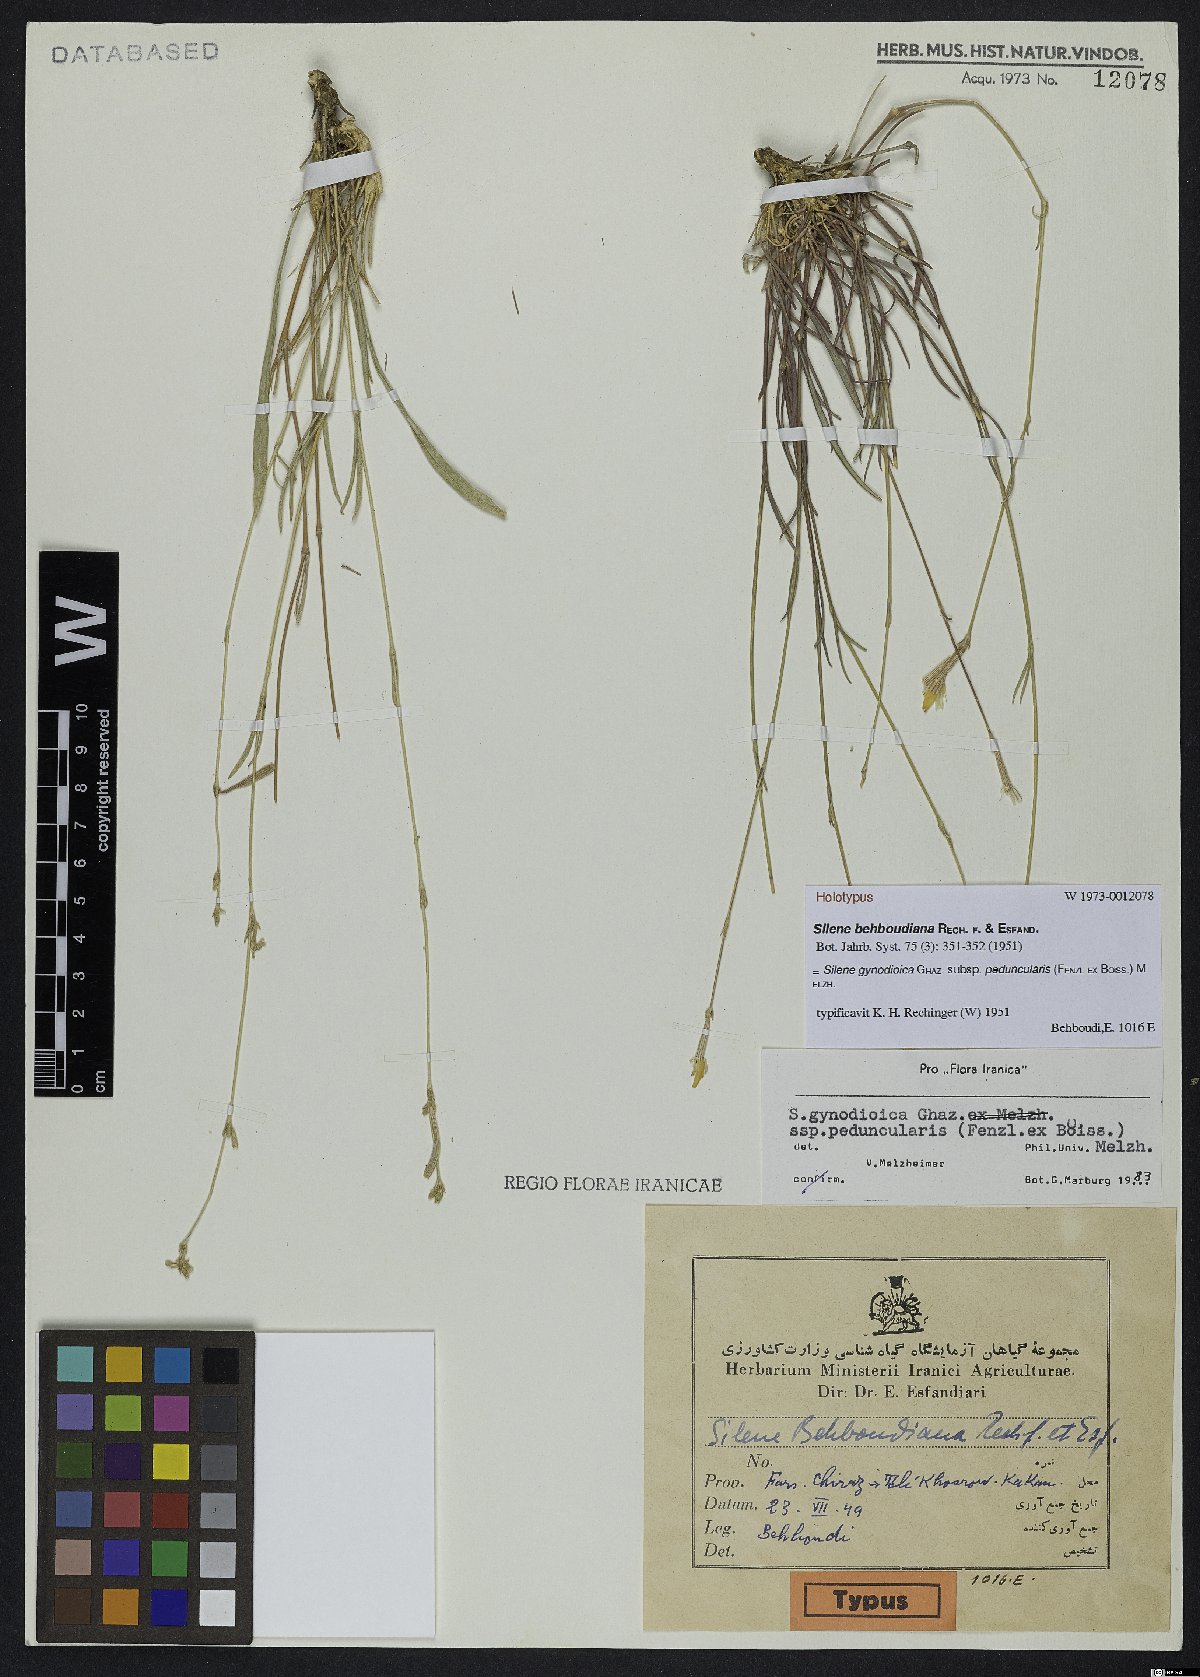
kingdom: Plantae
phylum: Tracheophyta
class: Magnoliopsida
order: Caryophyllales
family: Caryophyllaceae
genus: Silene
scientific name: Silene behboudiana
